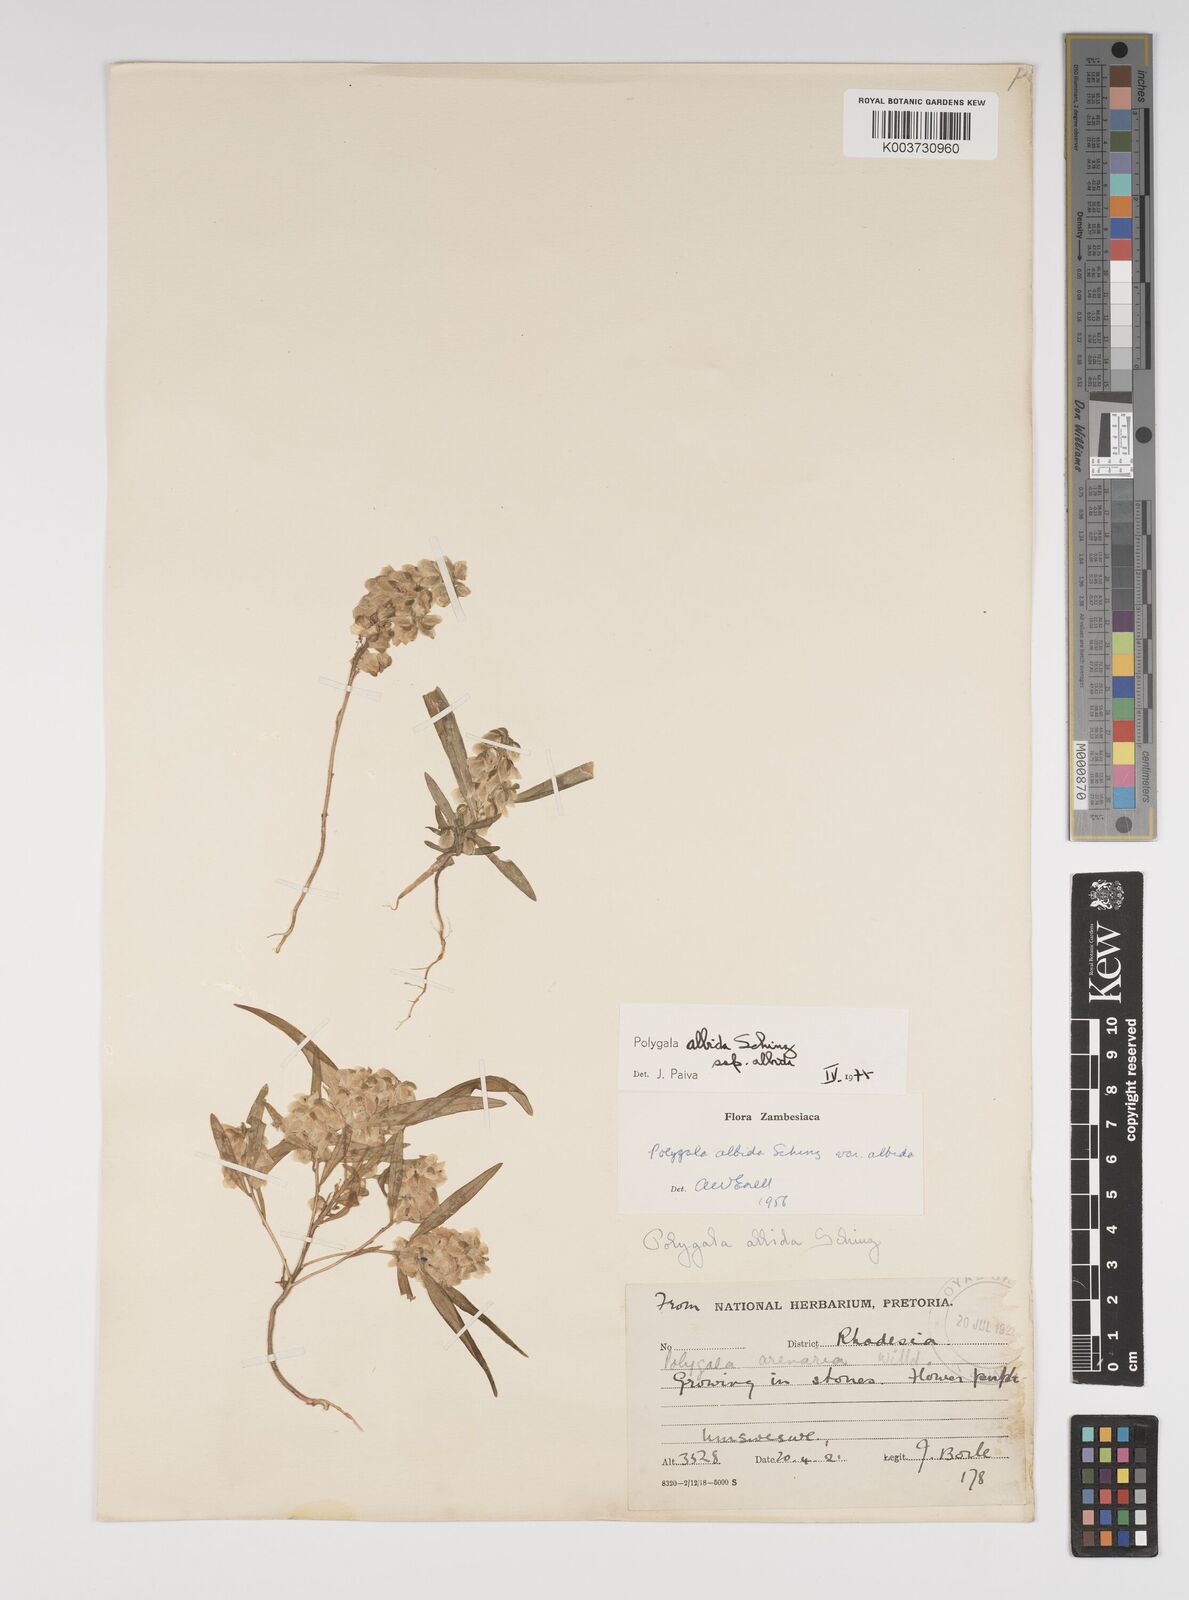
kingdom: Plantae
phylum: Tracheophyta
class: Magnoliopsida
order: Fabales
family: Polygalaceae
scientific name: Polygalaceae
